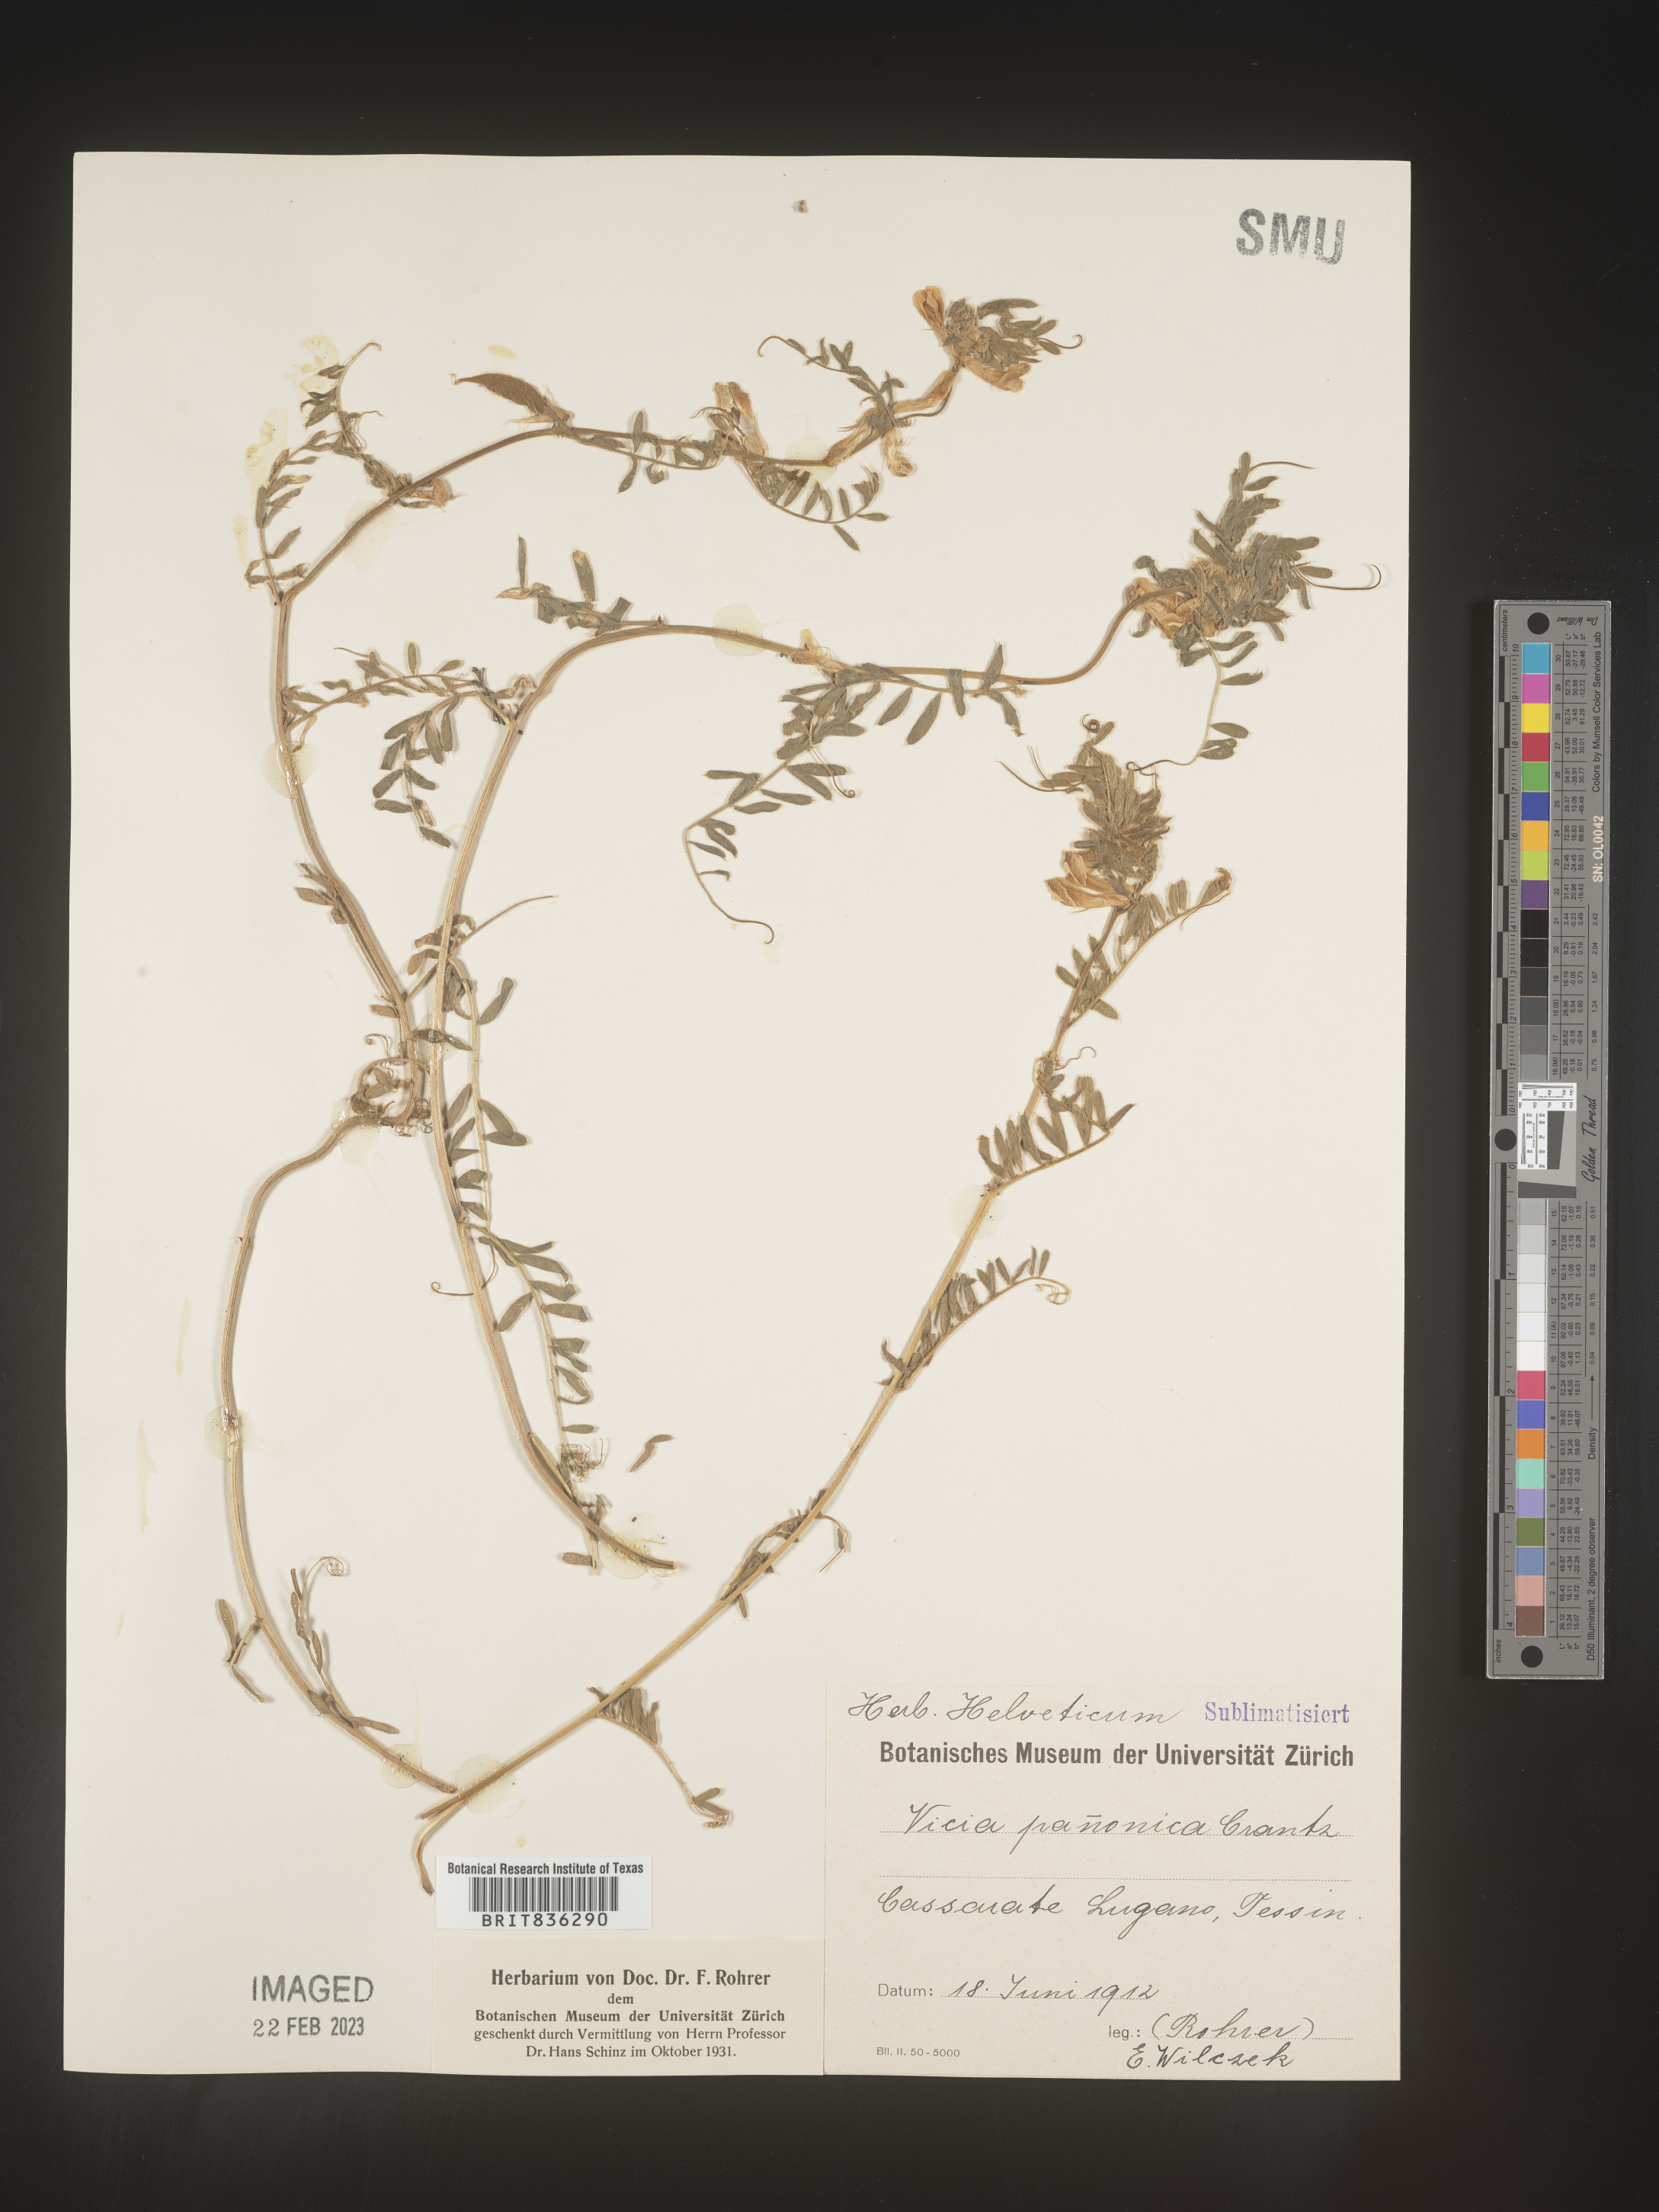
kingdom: Plantae
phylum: Tracheophyta
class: Magnoliopsida
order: Fabales
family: Fabaceae
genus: Vicia
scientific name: Vicia
